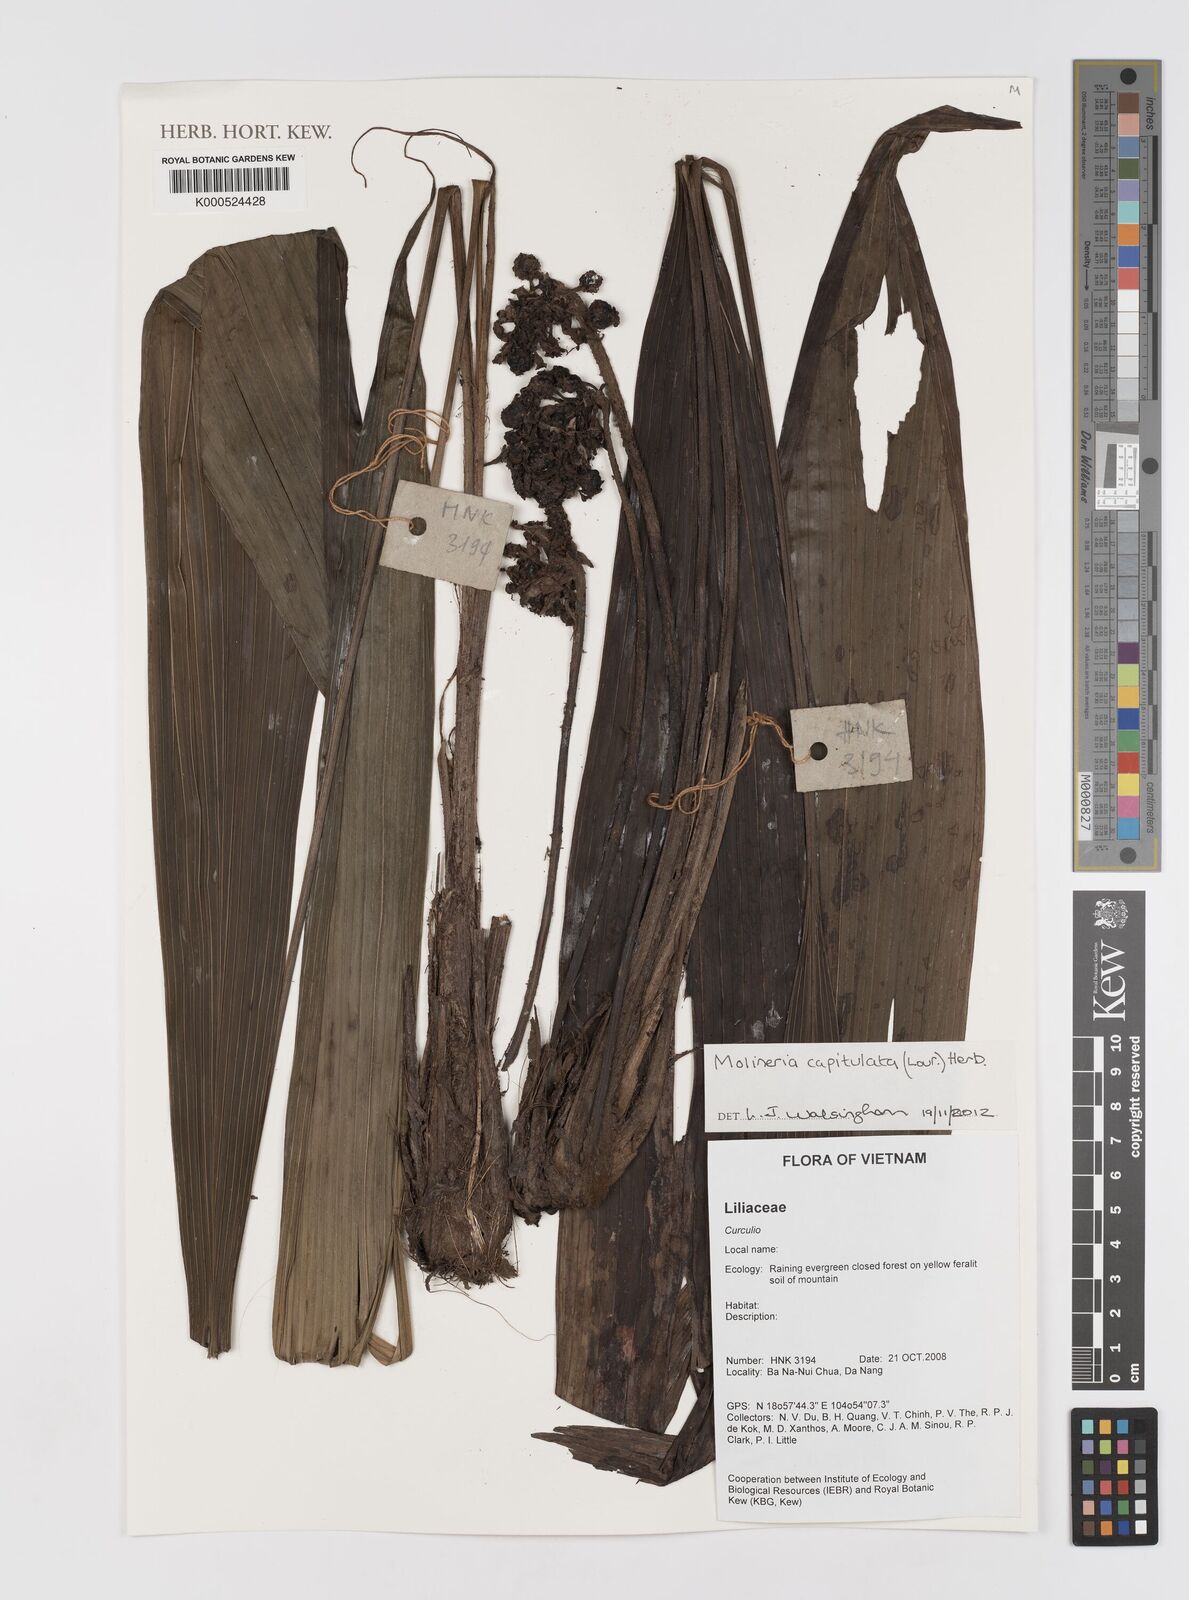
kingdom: Plantae
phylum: Tracheophyta
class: Liliopsida
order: Asparagales
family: Hypoxidaceae
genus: Curculigo
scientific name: Curculigo capitulata
